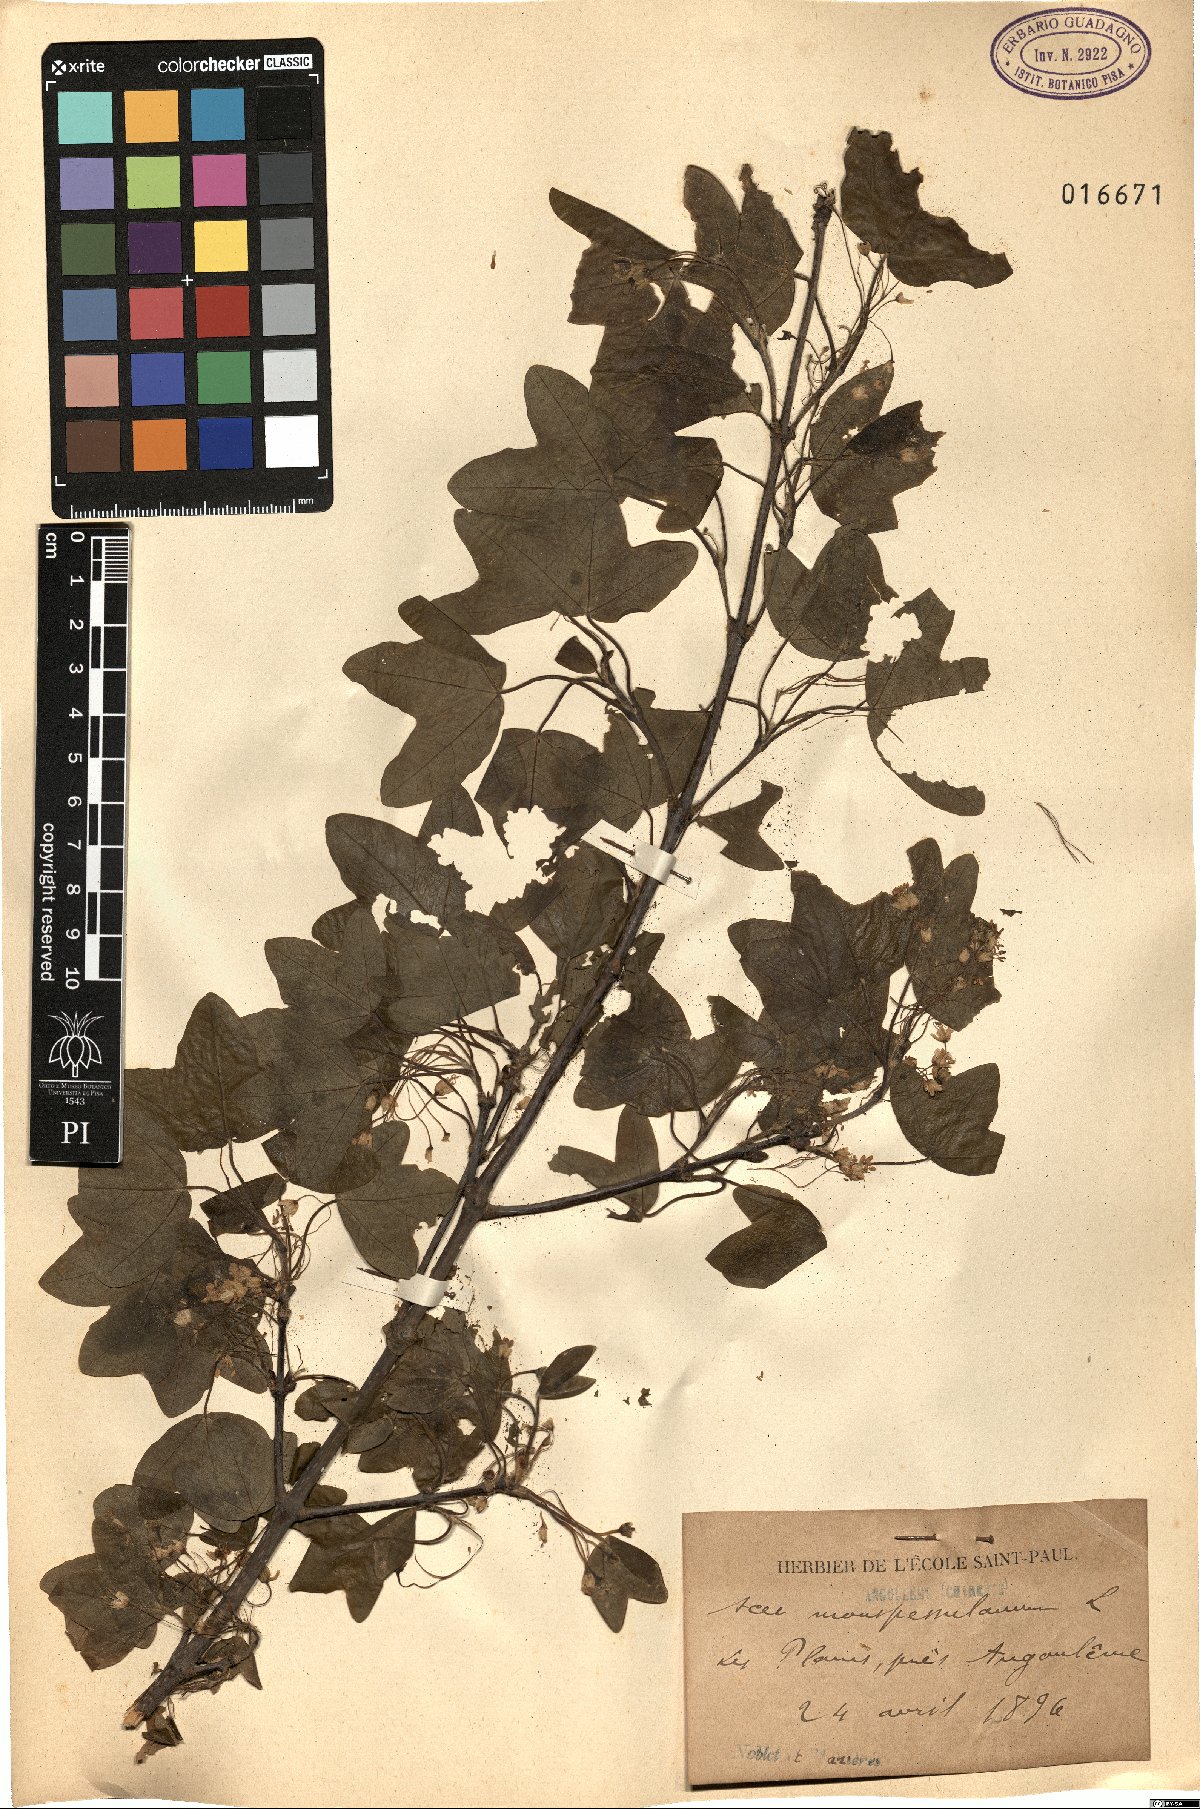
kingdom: Plantae
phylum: Tracheophyta
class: Magnoliopsida
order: Sapindales
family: Sapindaceae
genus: Acer
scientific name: Acer monspessulanum
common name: Montpellier maple
